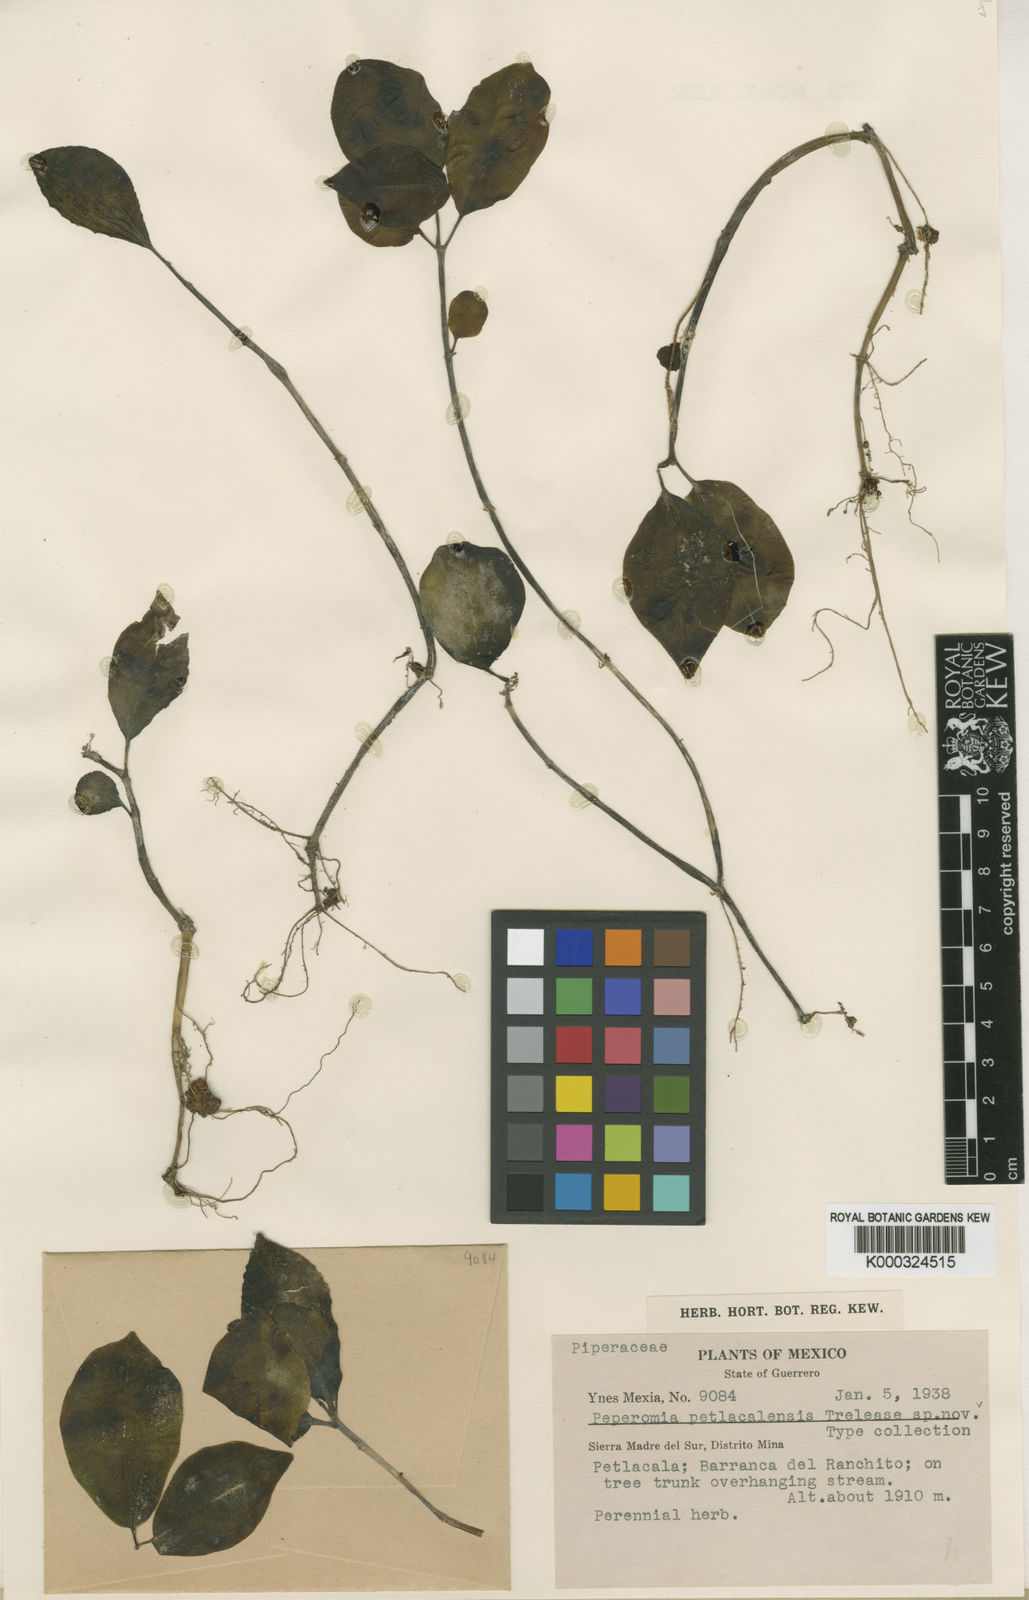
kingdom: Plantae
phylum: Tracheophyta
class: Magnoliopsida
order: Piperales
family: Piperaceae
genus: Peperomia
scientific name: Peperomia
